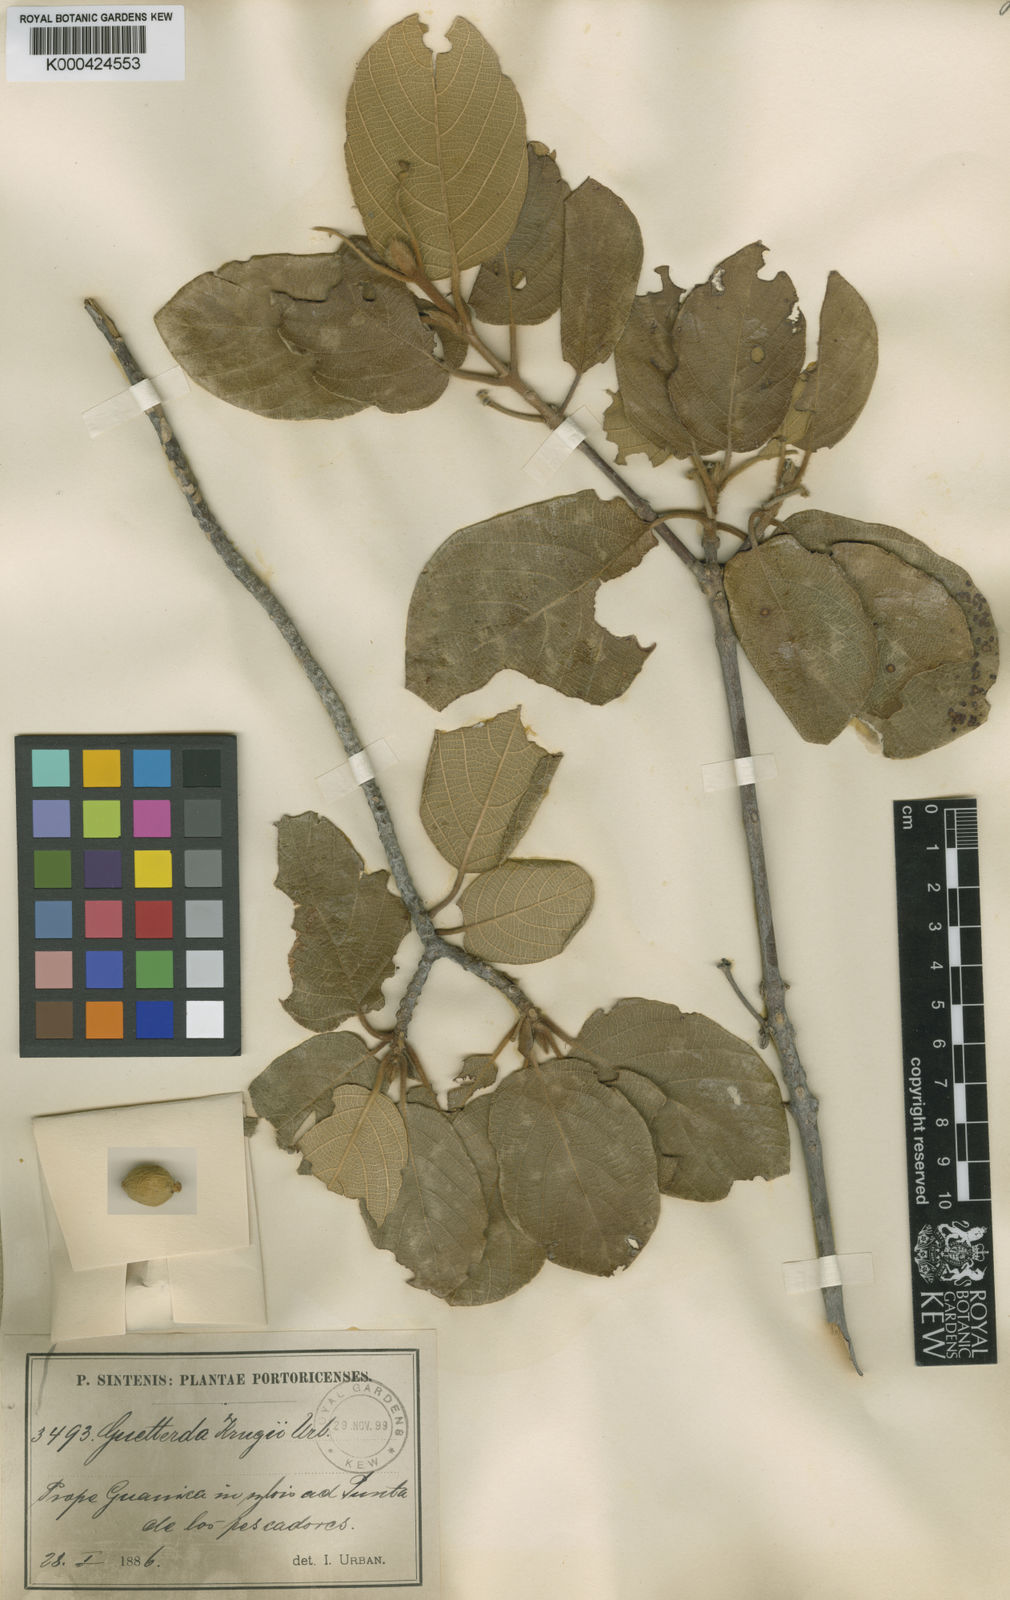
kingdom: Plantae
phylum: Tracheophyta
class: Magnoliopsida
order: Gentianales
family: Rubiaceae
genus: Guettarda
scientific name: Guettarda krugii
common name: Frogwood
